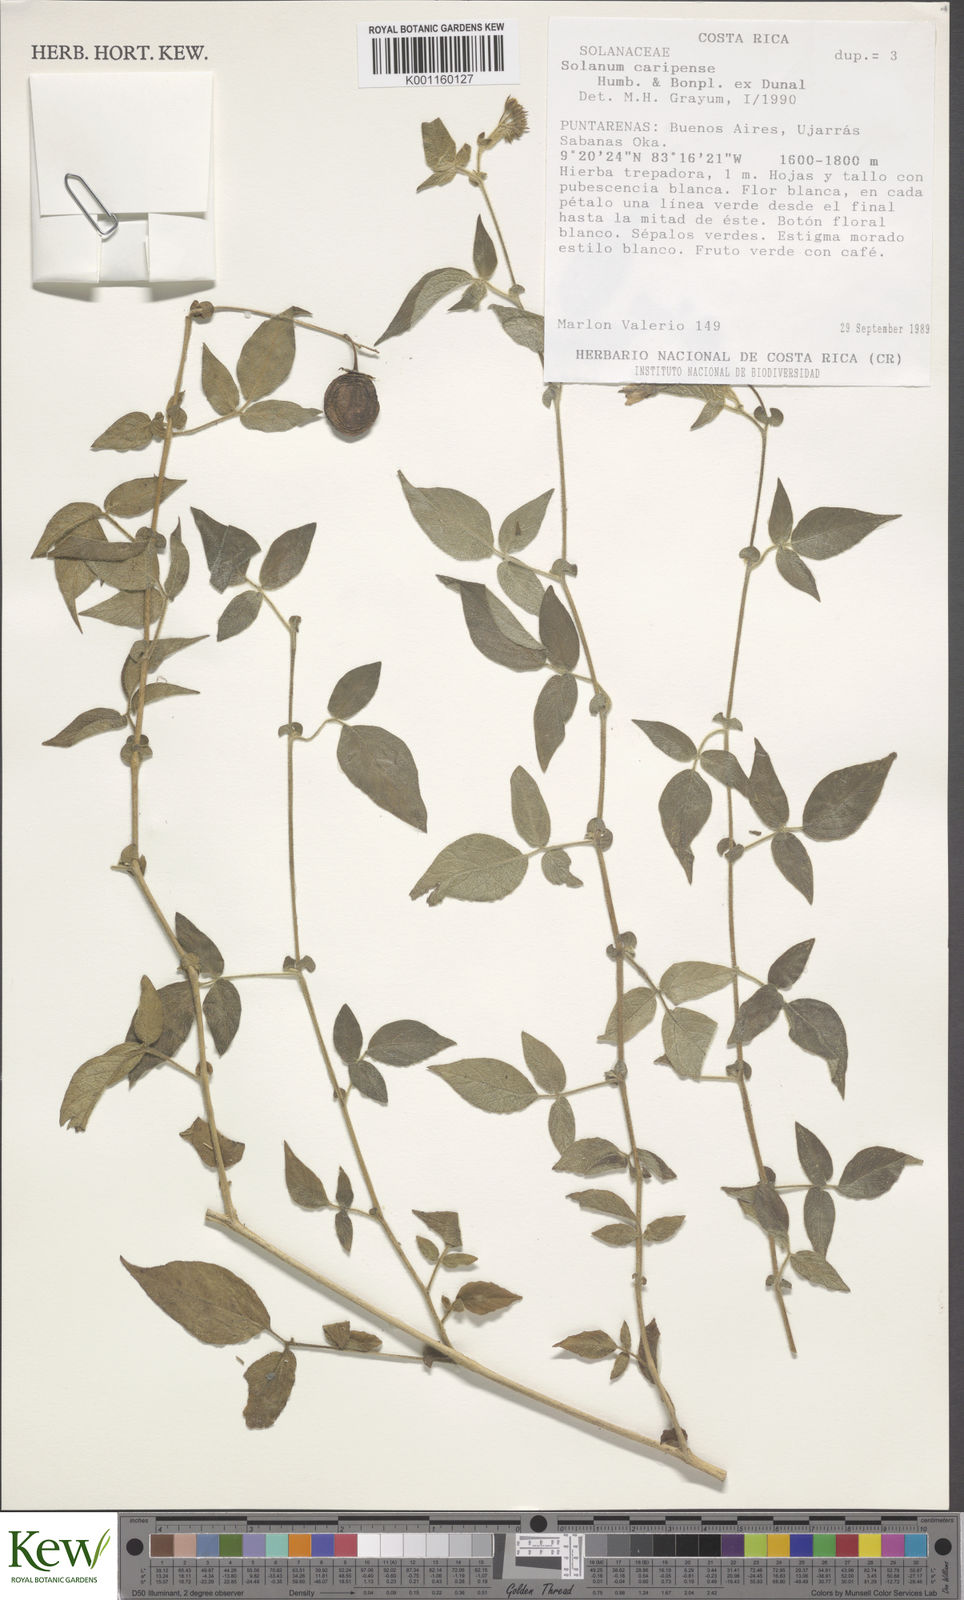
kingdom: Plantae
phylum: Tracheophyta
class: Magnoliopsida
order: Solanales
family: Solanaceae
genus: Solanum
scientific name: Solanum caripense
